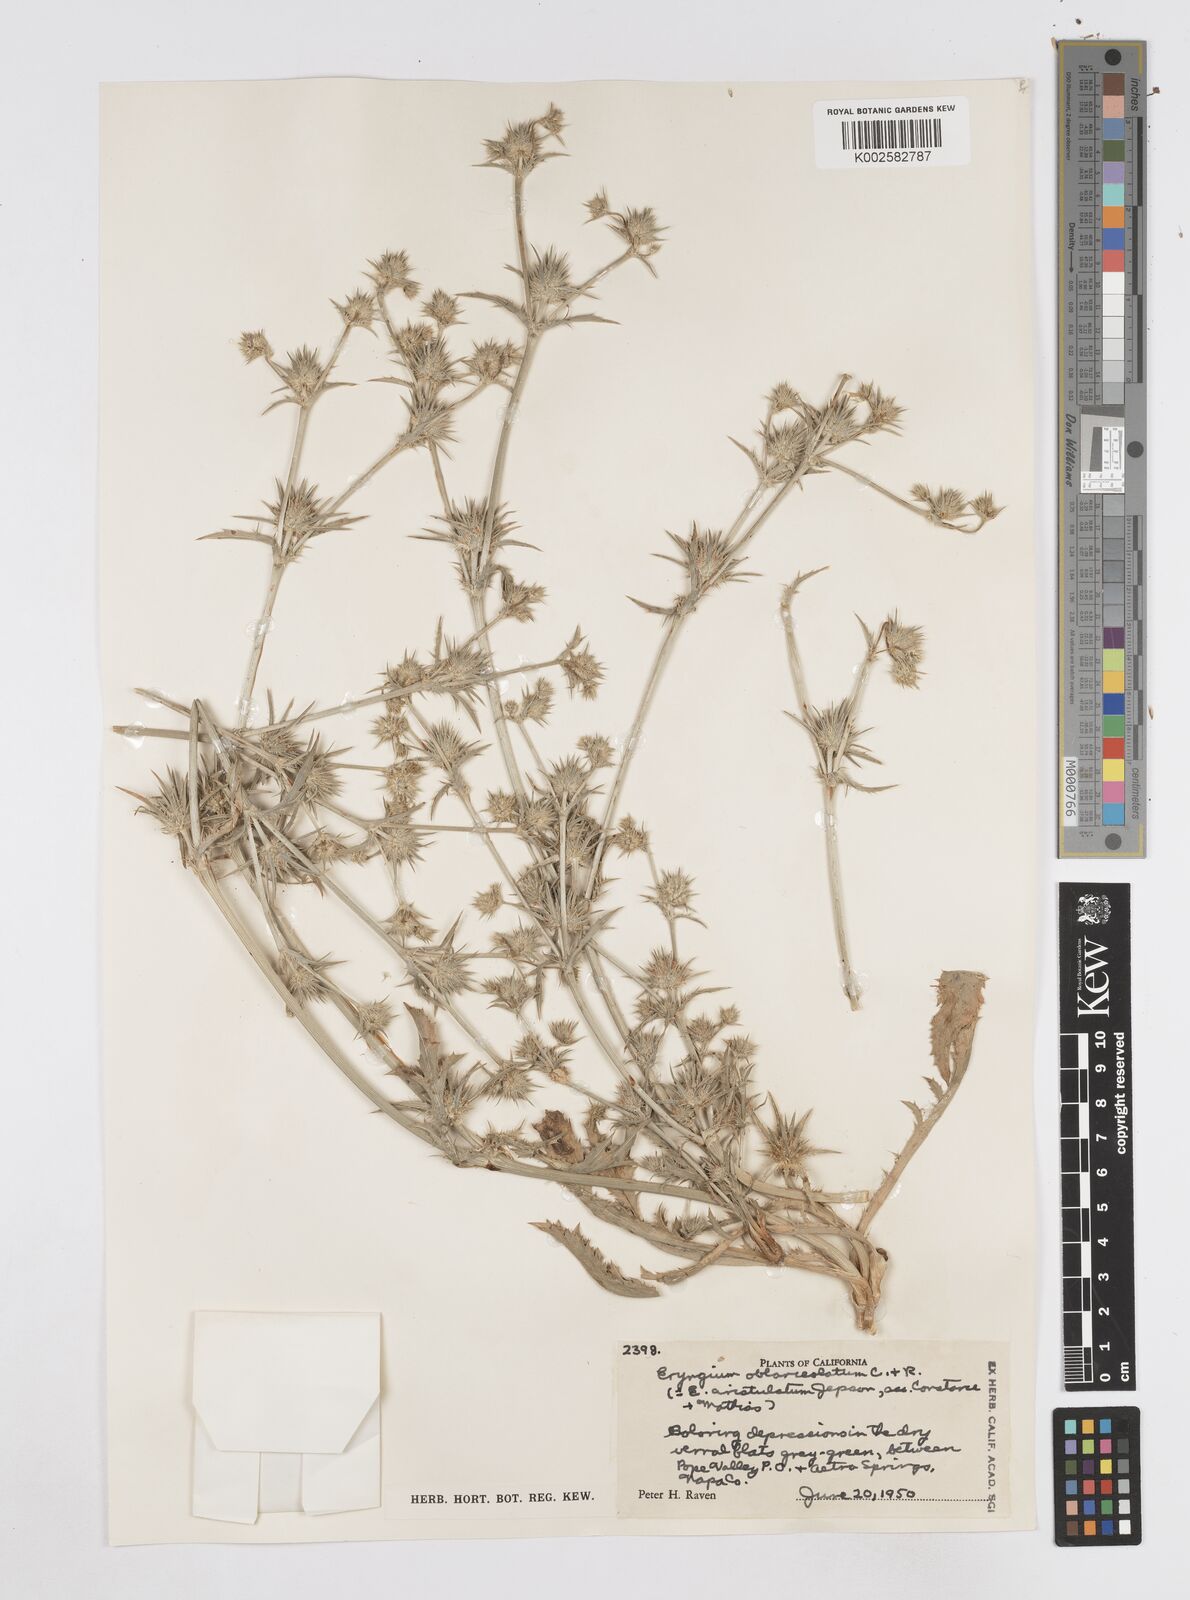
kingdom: Plantae
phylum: Tracheophyta
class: Magnoliopsida
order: Apiales
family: Apiaceae
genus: Eryngium
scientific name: Eryngium aristulatum
